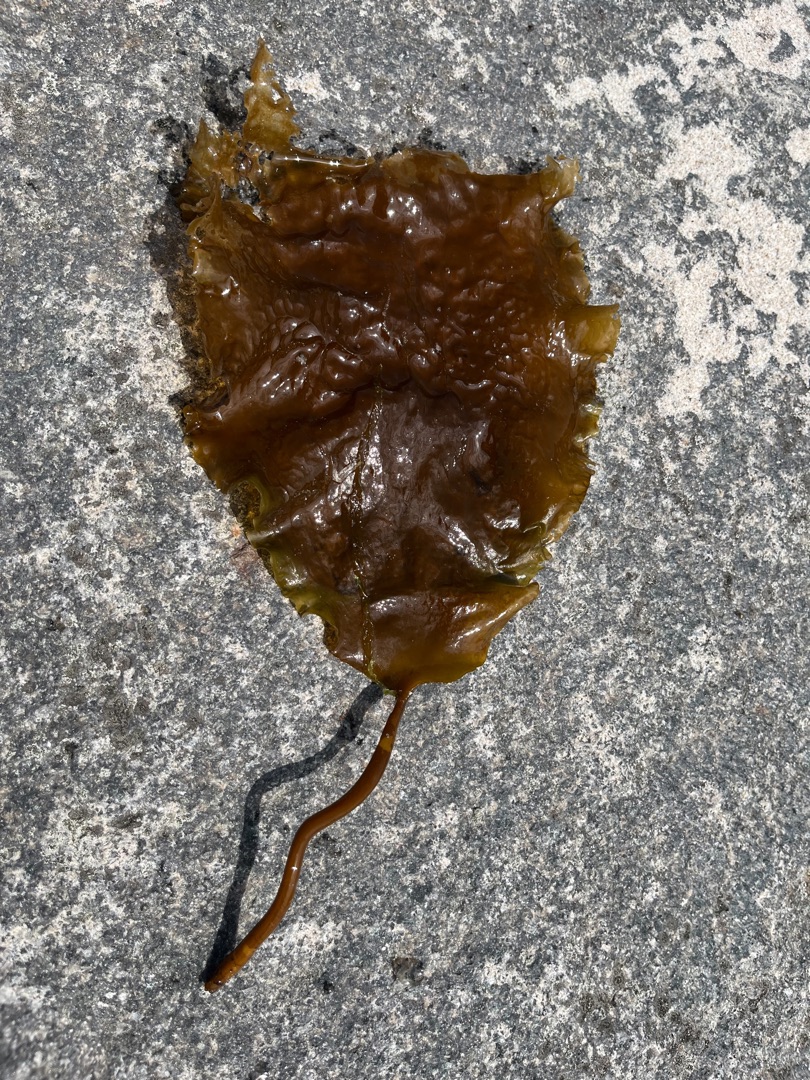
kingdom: Chromista
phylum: Ochrophyta
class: Phaeophyceae
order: Laminariales
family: Laminariaceae
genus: Saccharina
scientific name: Saccharina latissima
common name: Sukkertang
